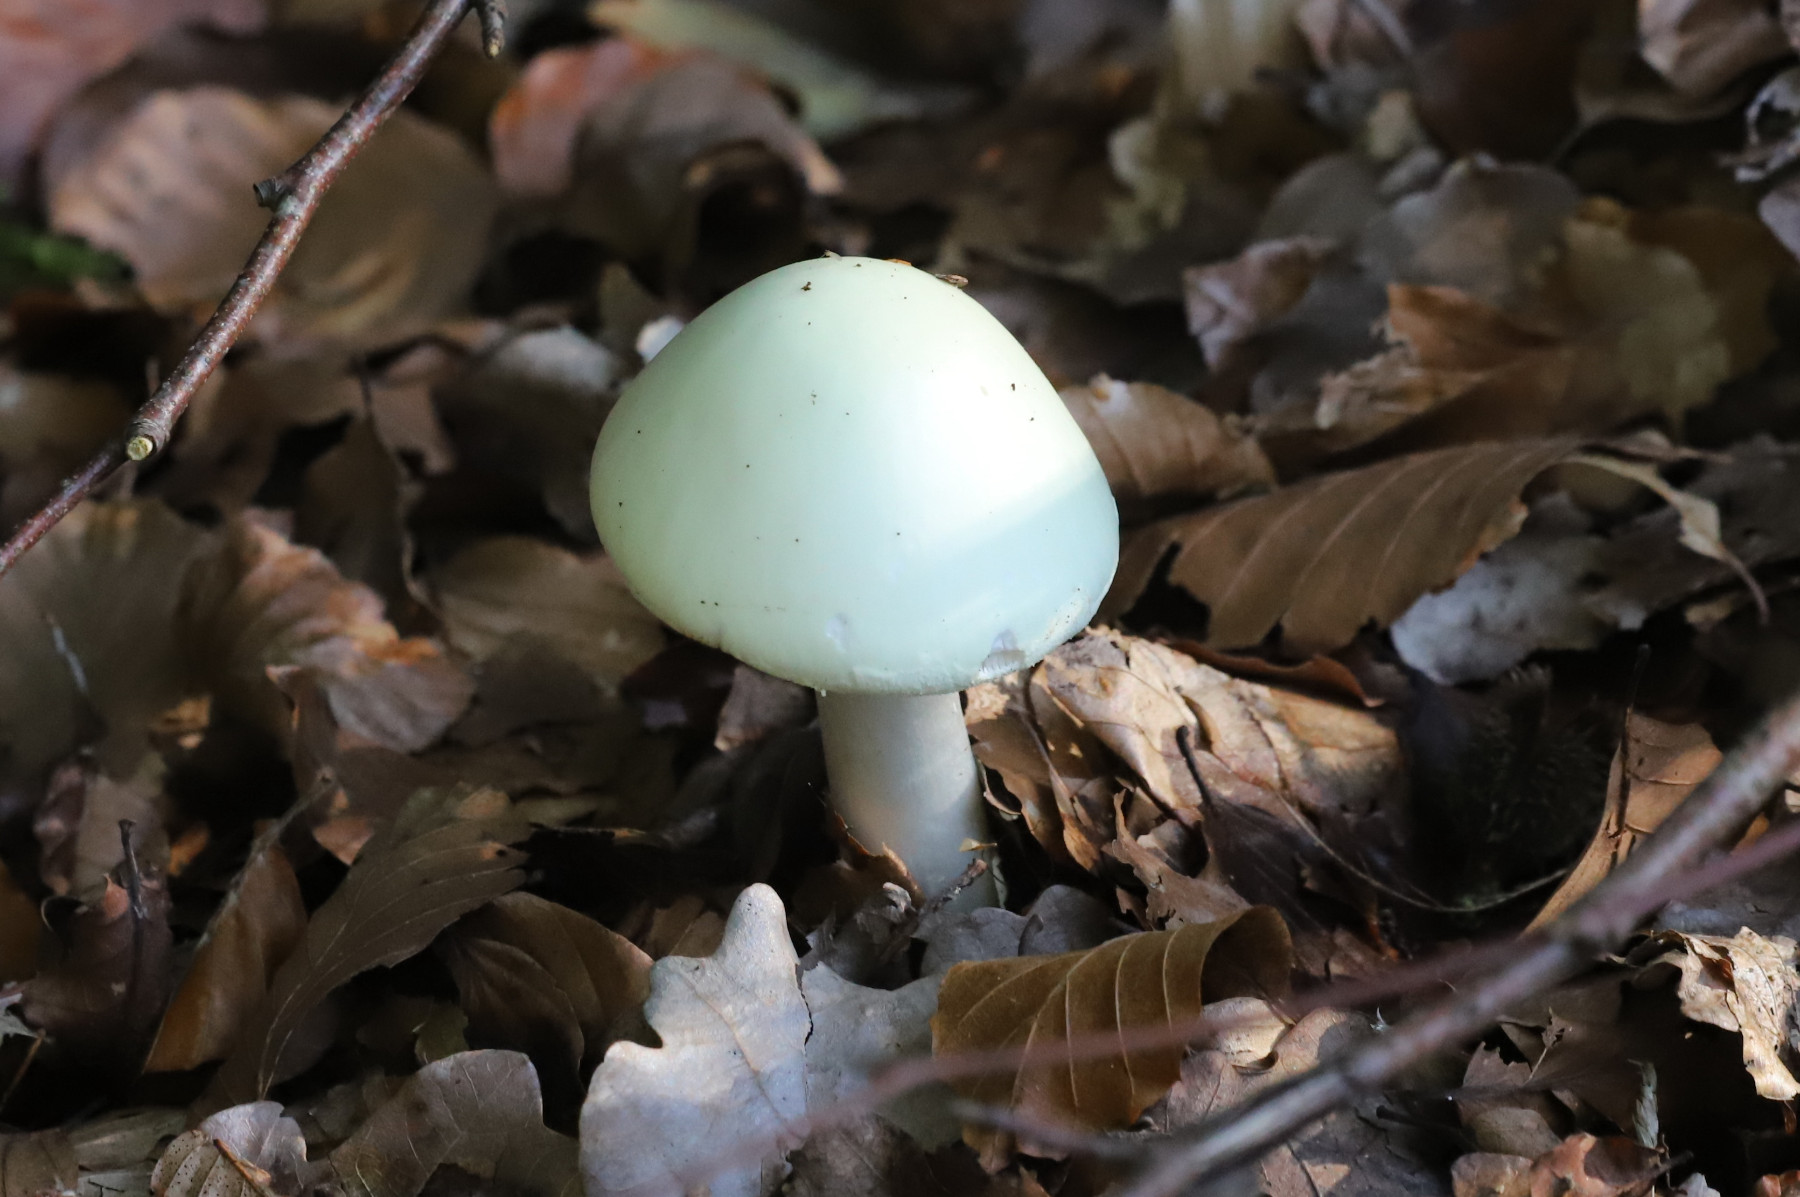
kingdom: Fungi
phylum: Basidiomycota
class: Agaricomycetes
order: Agaricales
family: Amanitaceae
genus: Amanita
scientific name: Amanita citrina
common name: kugleknoldet fluesvamp
